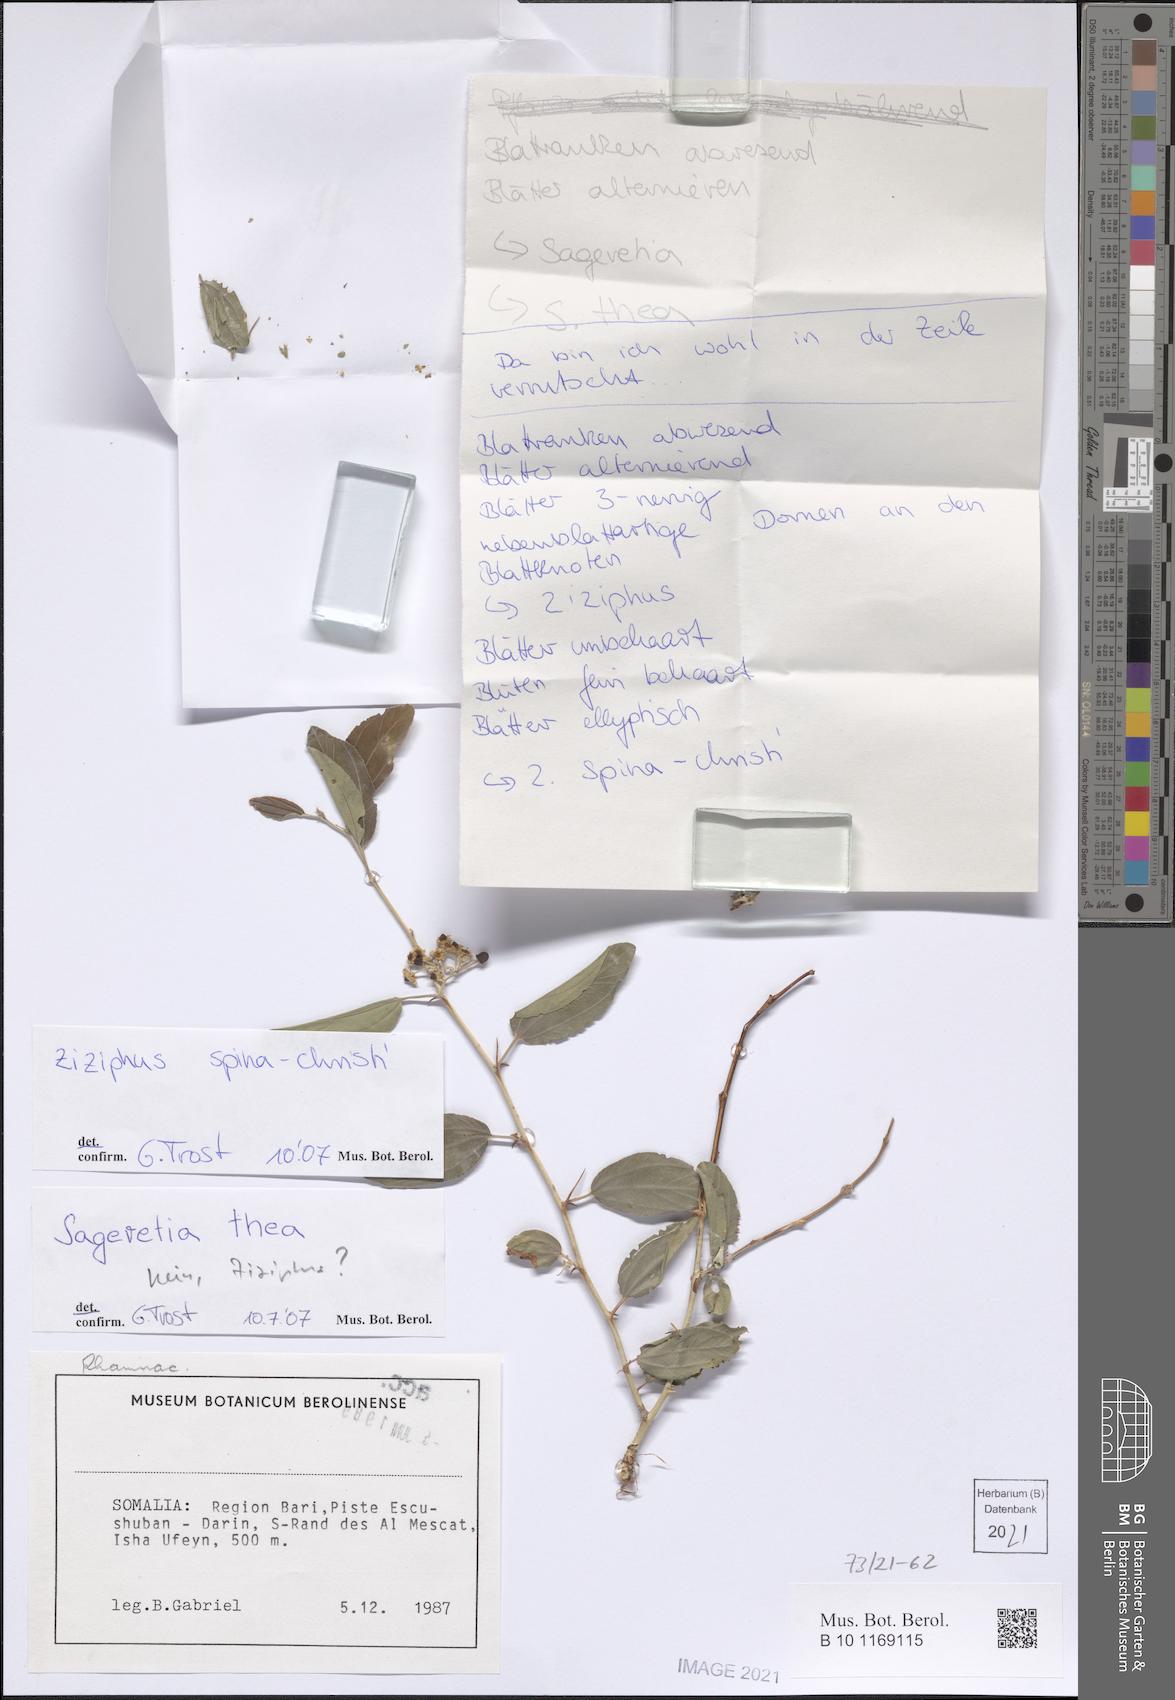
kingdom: Plantae
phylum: Tracheophyta
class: Magnoliopsida
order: Rosales
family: Rhamnaceae
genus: Ziziphus
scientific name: Ziziphus spina-christi
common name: Syrian christ-thorn
